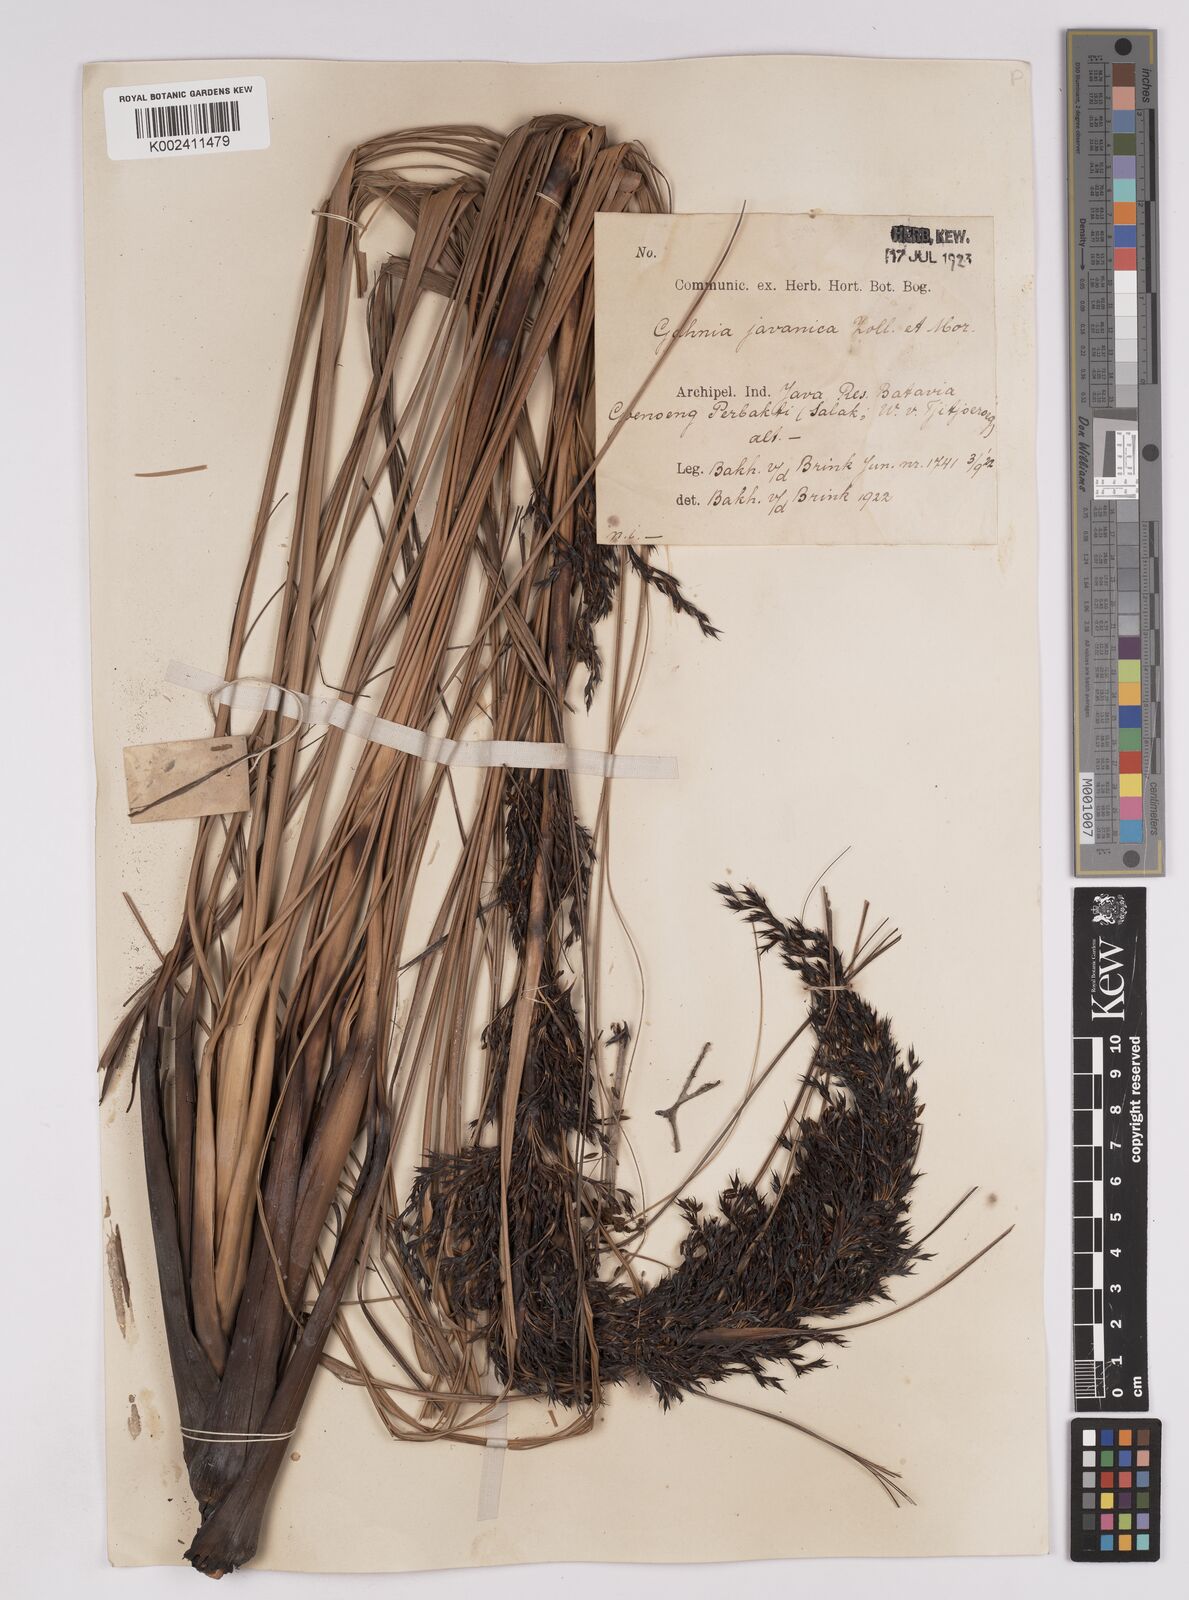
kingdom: Plantae
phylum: Tracheophyta
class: Liliopsida
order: Poales
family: Cyperaceae
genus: Gahnia
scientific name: Gahnia javanica
